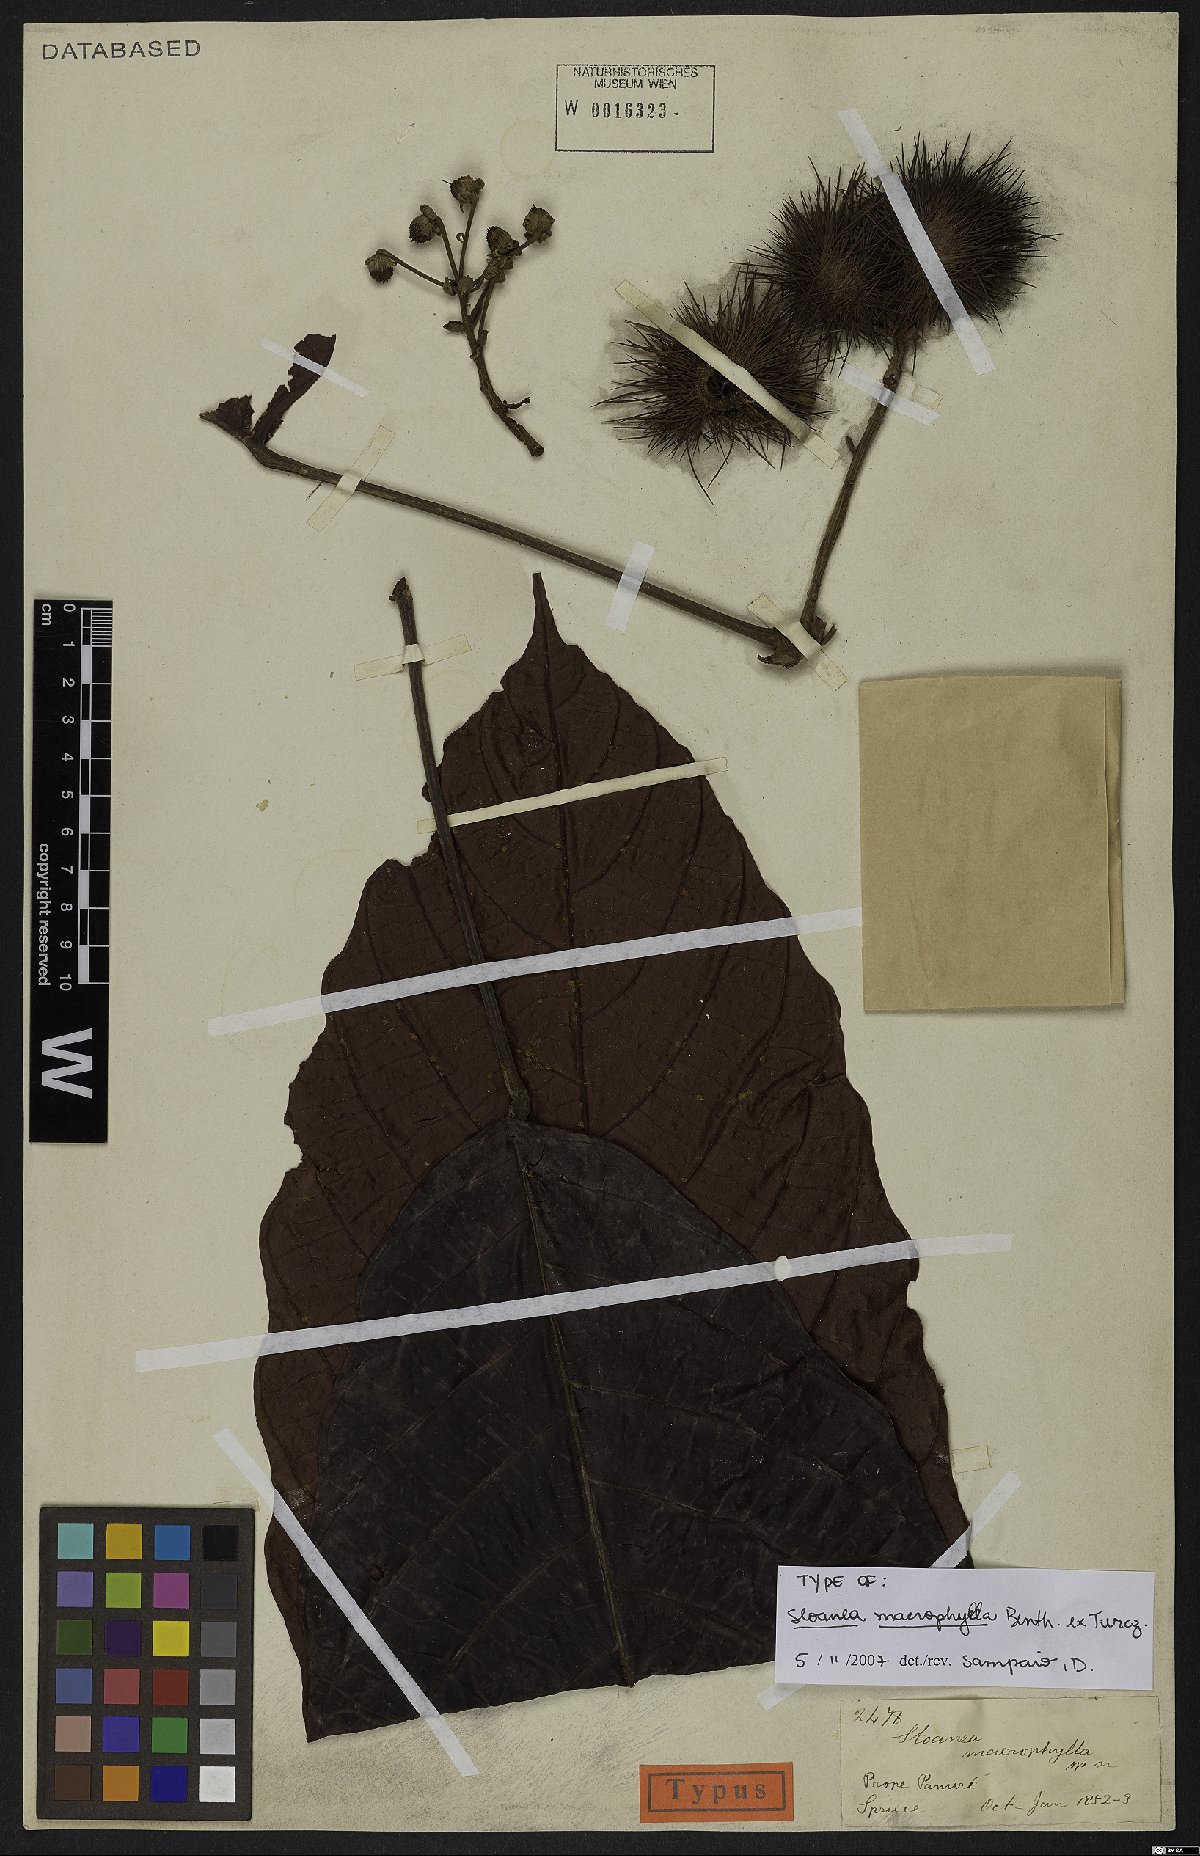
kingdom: Plantae
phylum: Tracheophyta
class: Magnoliopsida
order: Oxalidales
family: Elaeocarpaceae
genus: Sloanea
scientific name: Sloanea macrophylla
